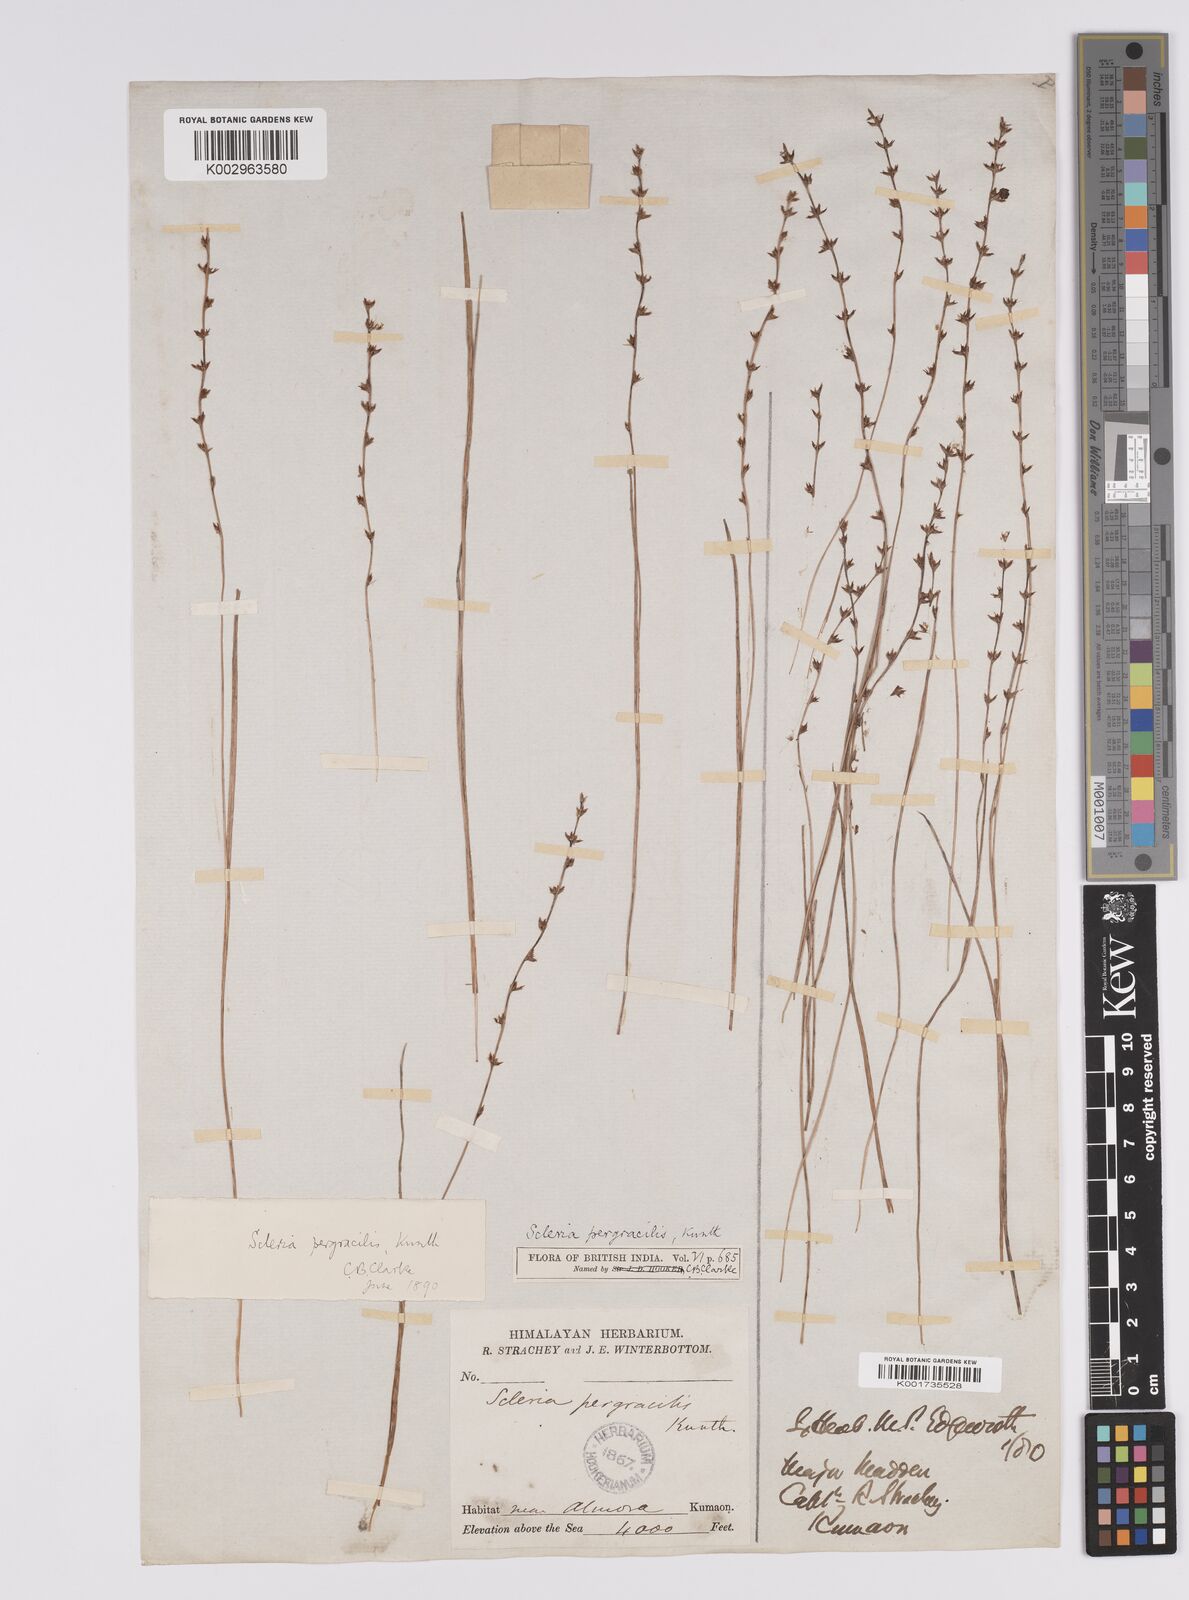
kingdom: Plantae
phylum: Tracheophyta
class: Liliopsida
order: Poales
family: Cyperaceae
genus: Scleria
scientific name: Scleria pergracilis
